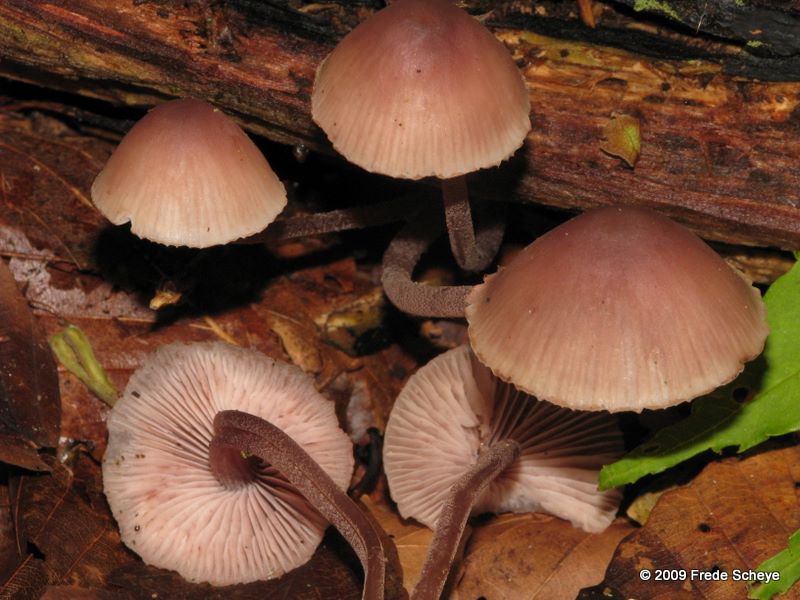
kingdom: Fungi
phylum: Basidiomycota
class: Agaricomycetes
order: Agaricales
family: Mycenaceae
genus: Mycena
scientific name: Mycena haematopus
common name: blødende huesvamp
